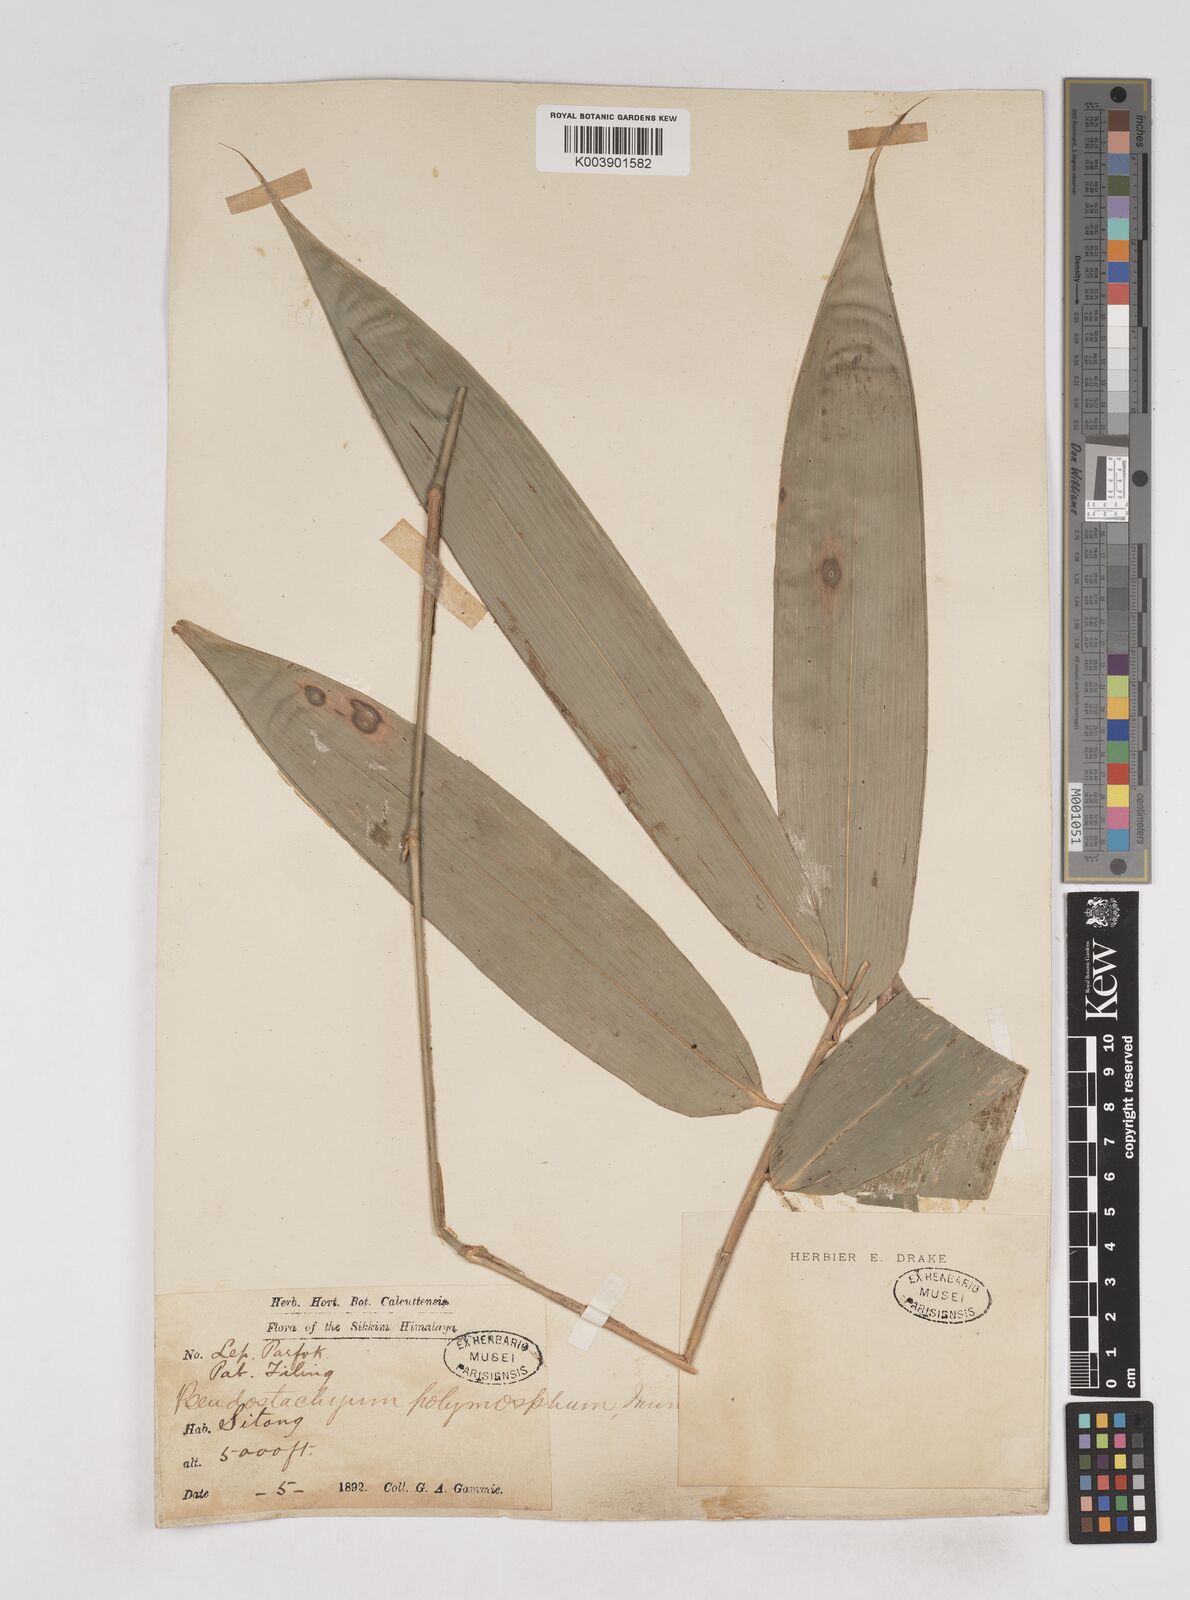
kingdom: Plantae
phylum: Tracheophyta
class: Liliopsida
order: Poales
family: Poaceae
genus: Pseudostachyum
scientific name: Pseudostachyum polymorphum
